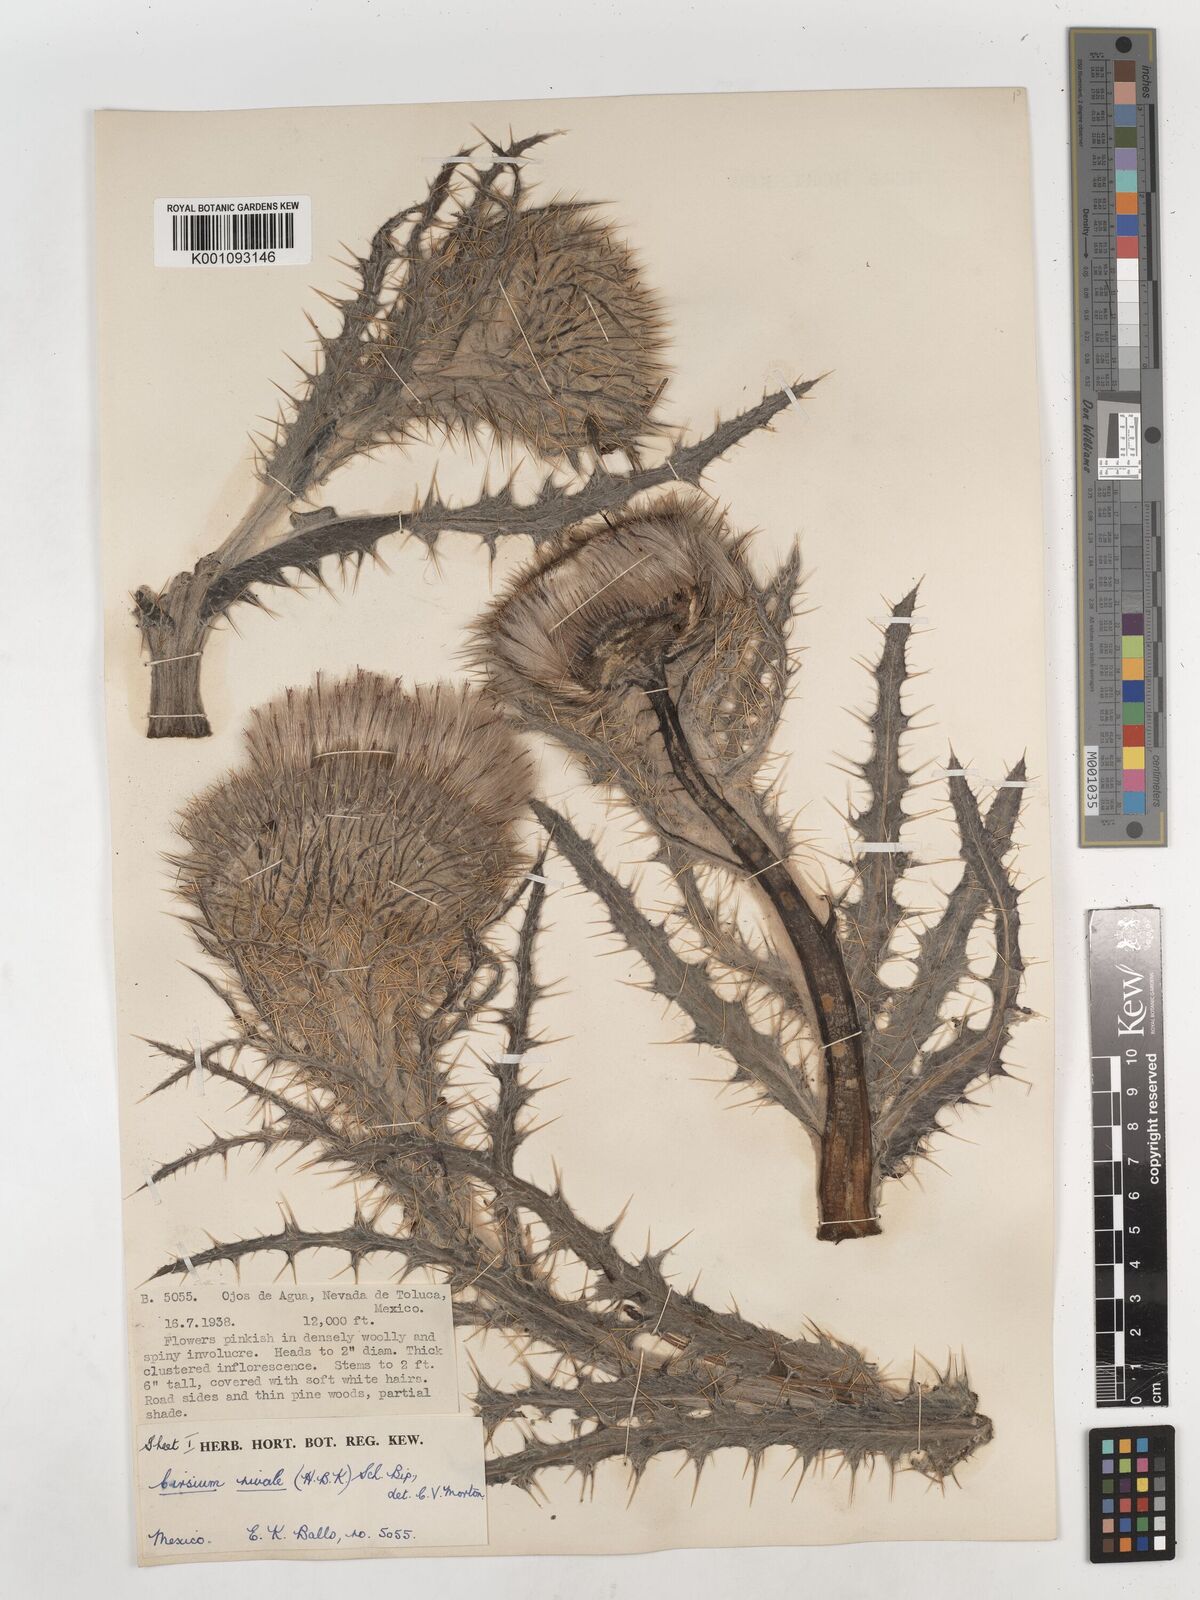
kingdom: Plantae
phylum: Tracheophyta
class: Magnoliopsida
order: Asterales
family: Asteraceae
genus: Cirsium
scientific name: Cirsium nivale
